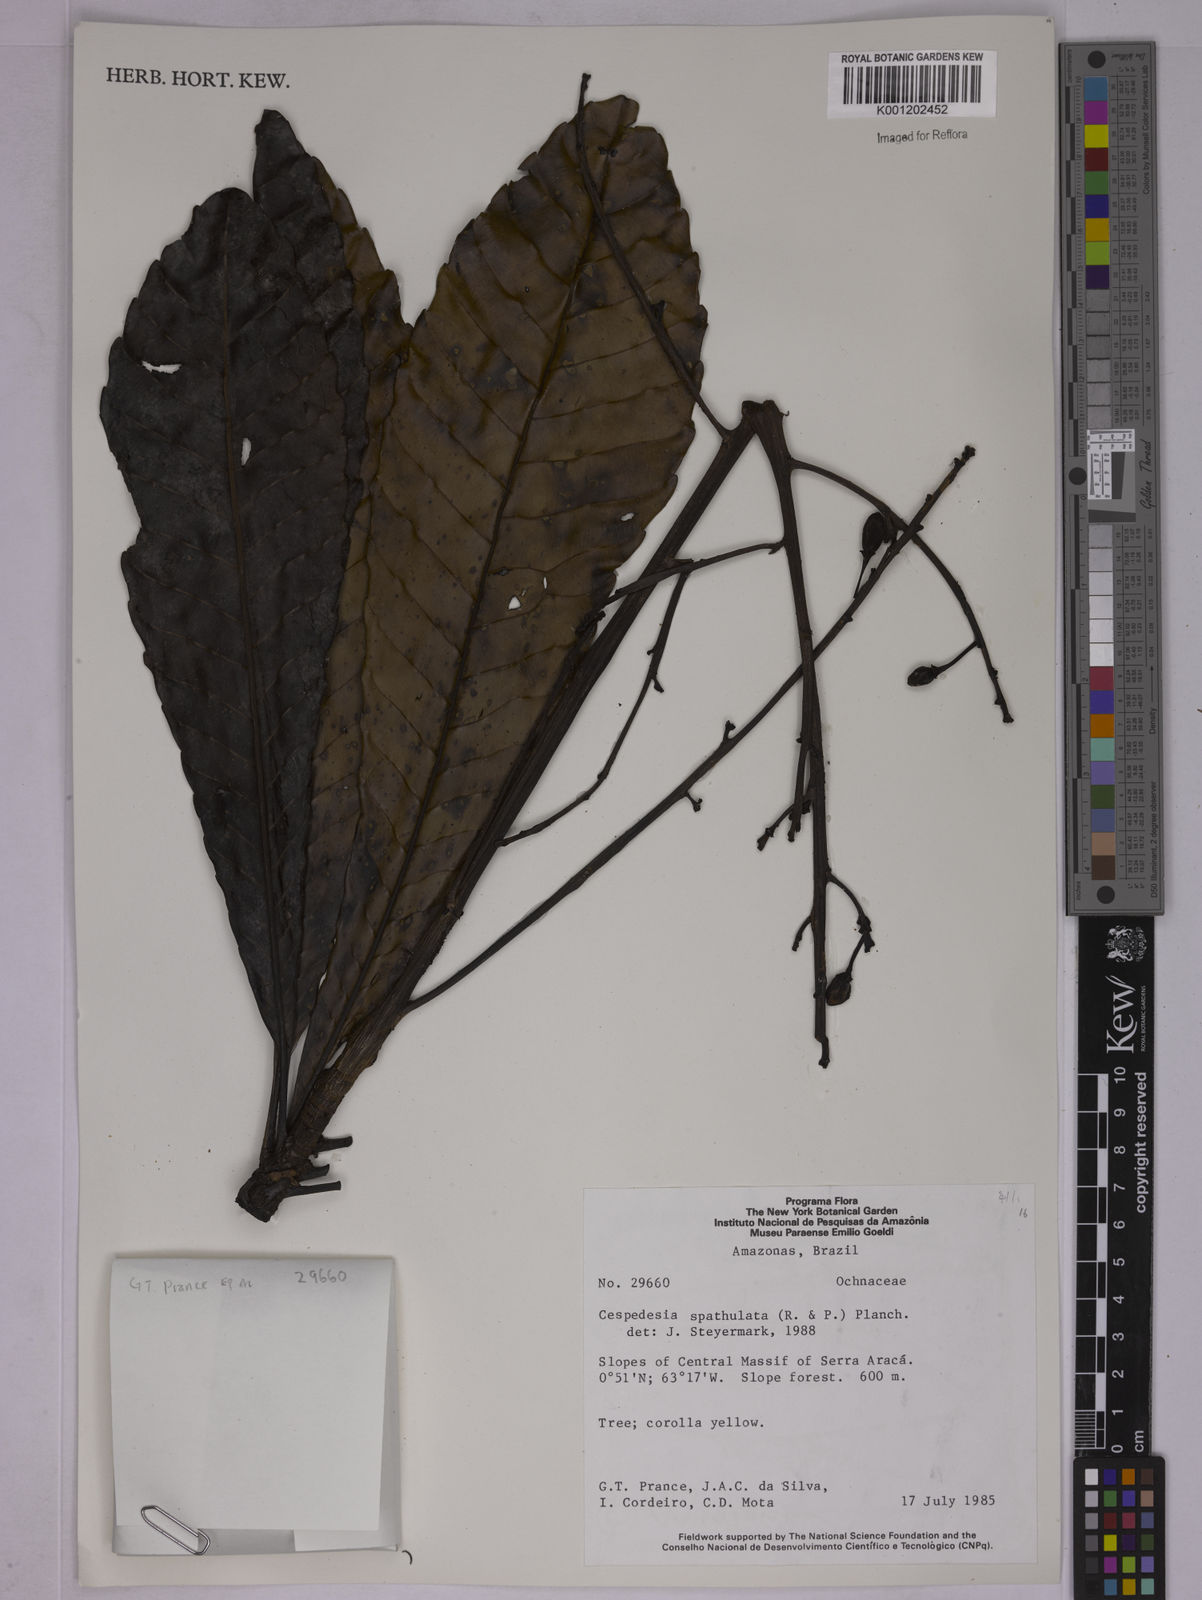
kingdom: Plantae
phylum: Tracheophyta
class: Magnoliopsida
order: Malpighiales
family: Ochnaceae
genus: Cespedesia
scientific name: Cespedesia spathulata
